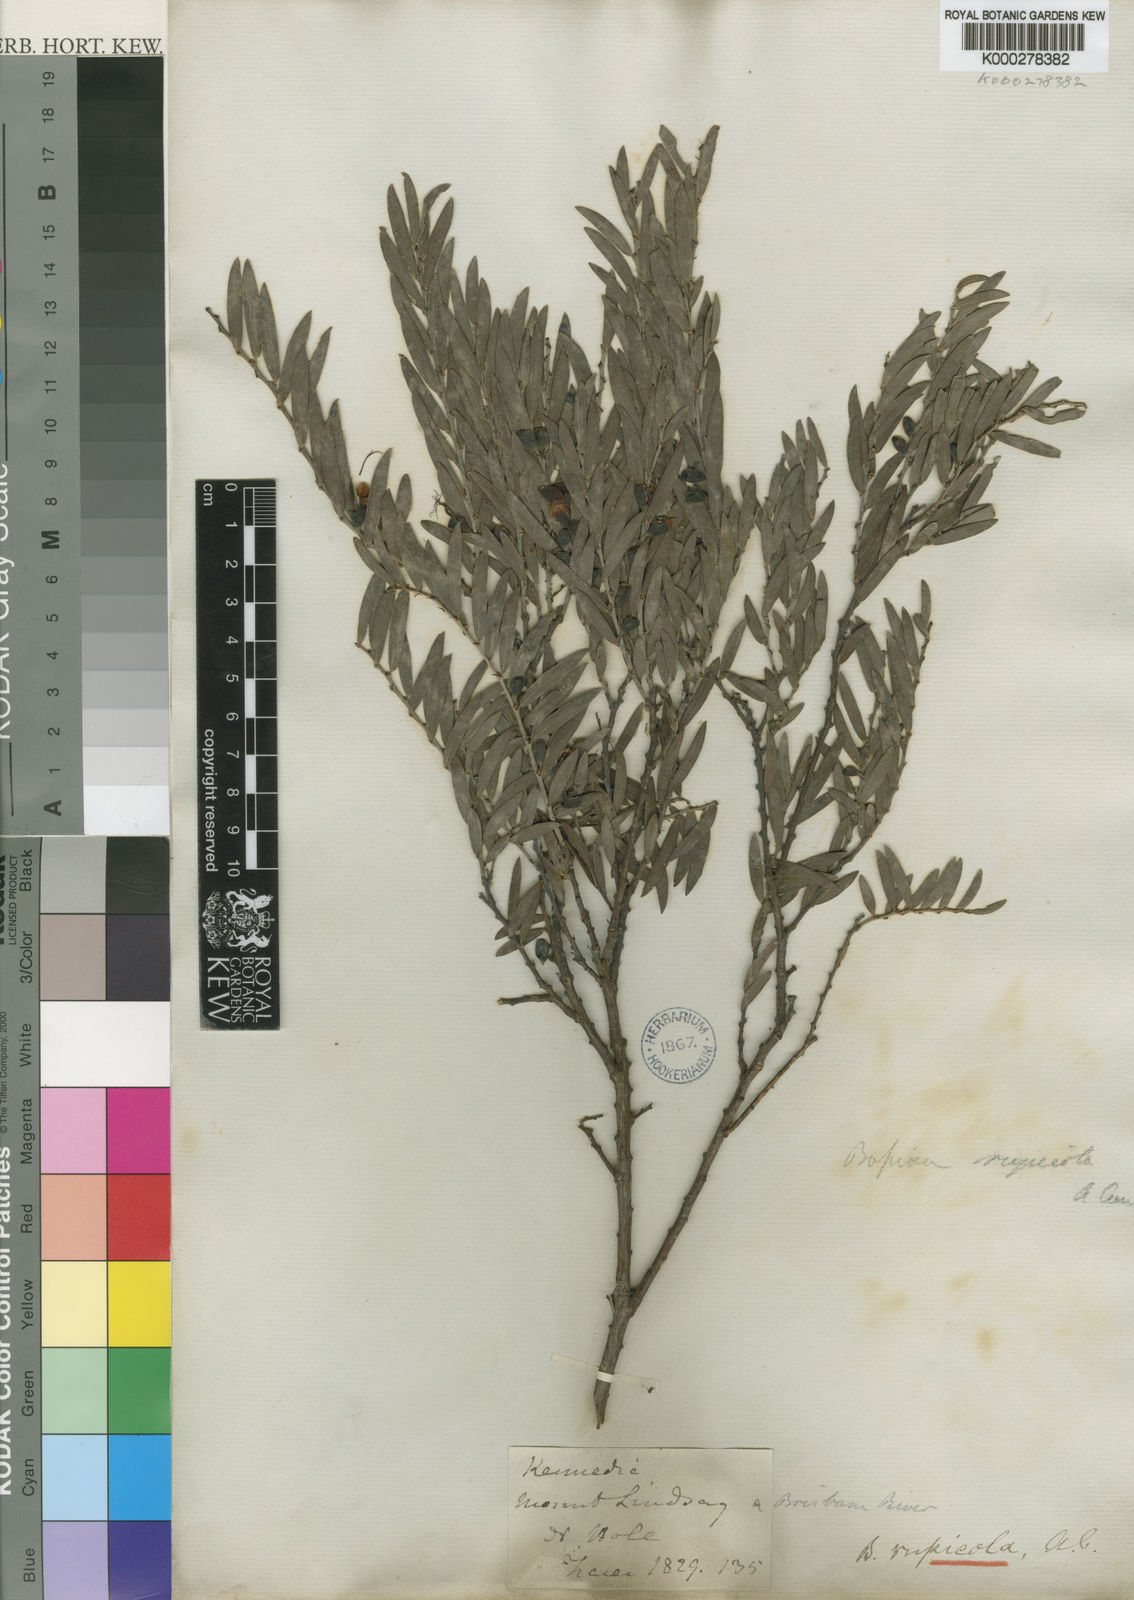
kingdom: Plantae
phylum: Tracheophyta
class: Magnoliopsida
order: Fabales
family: Fabaceae
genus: Bossiaea
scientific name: Bossiaea rupicola
